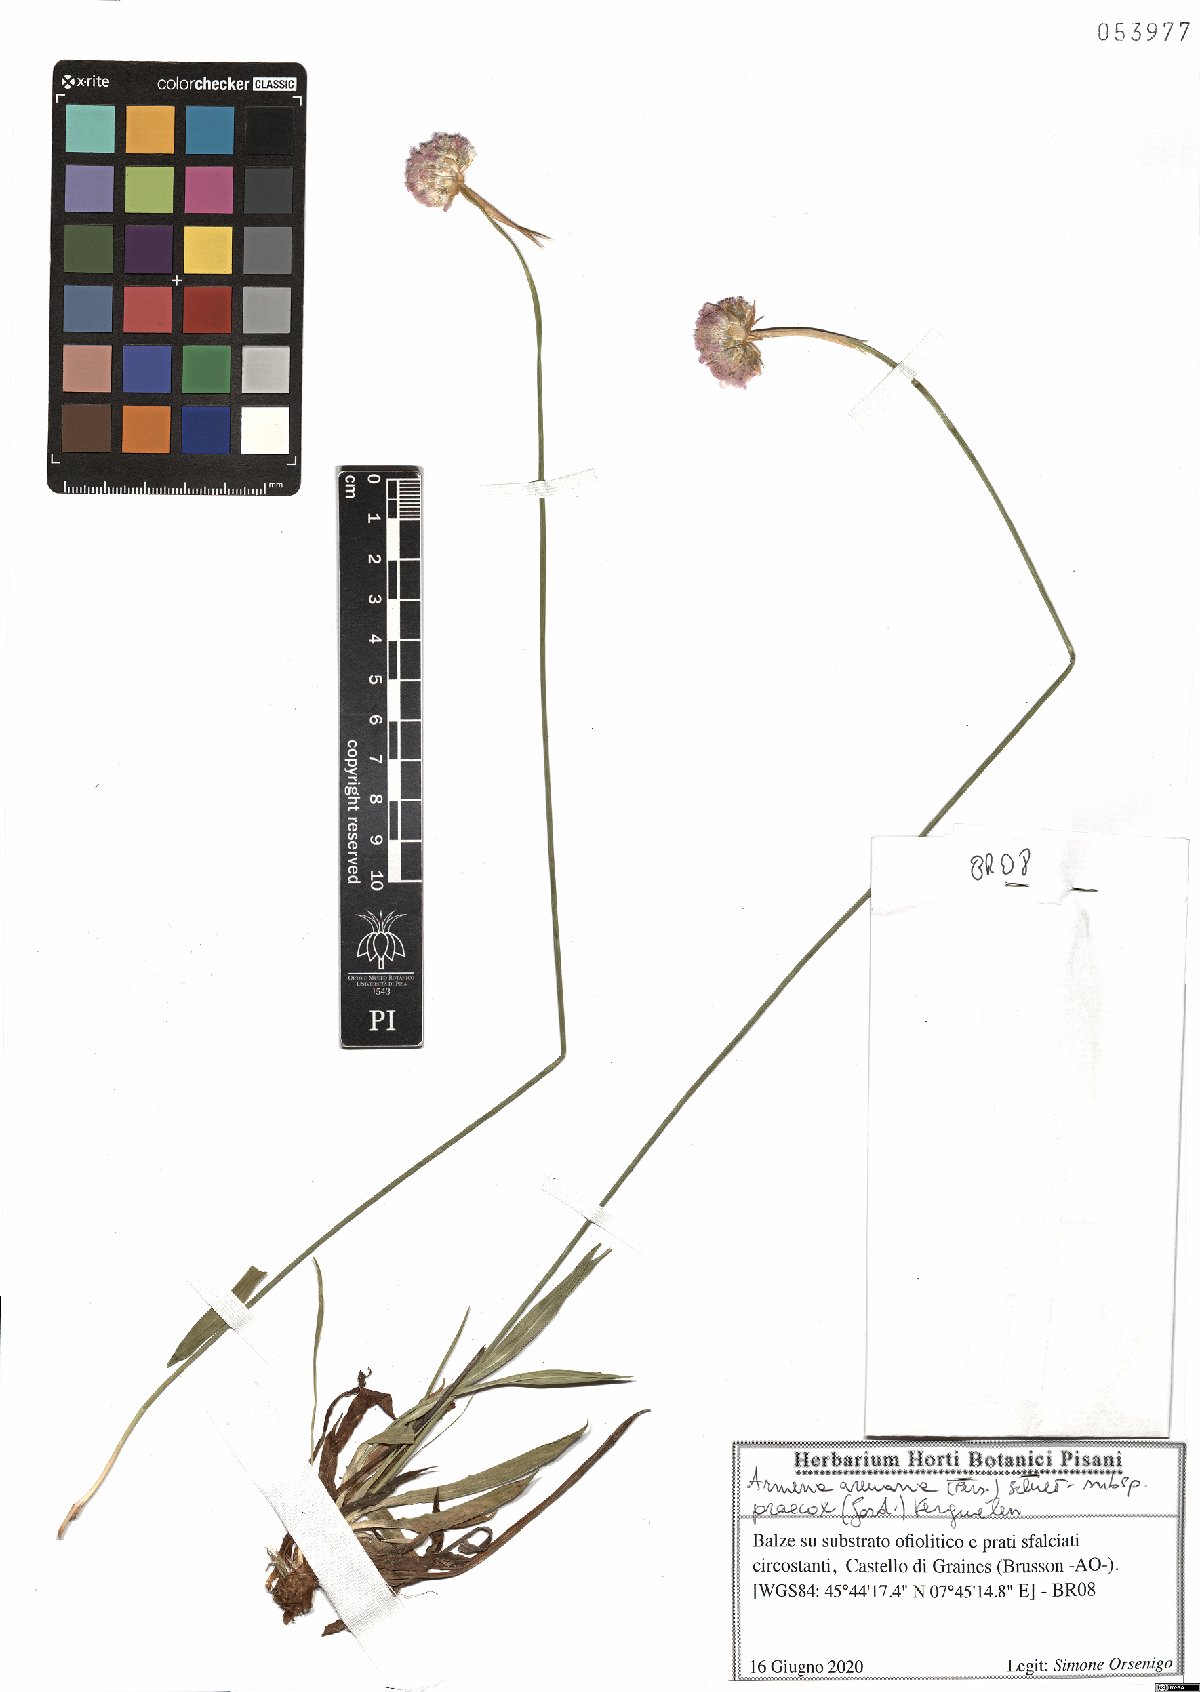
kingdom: Plantae
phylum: Tracheophyta
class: Magnoliopsida
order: Caryophyllales
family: Plumbaginaceae
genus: Armeria
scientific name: Armeria arenaria
